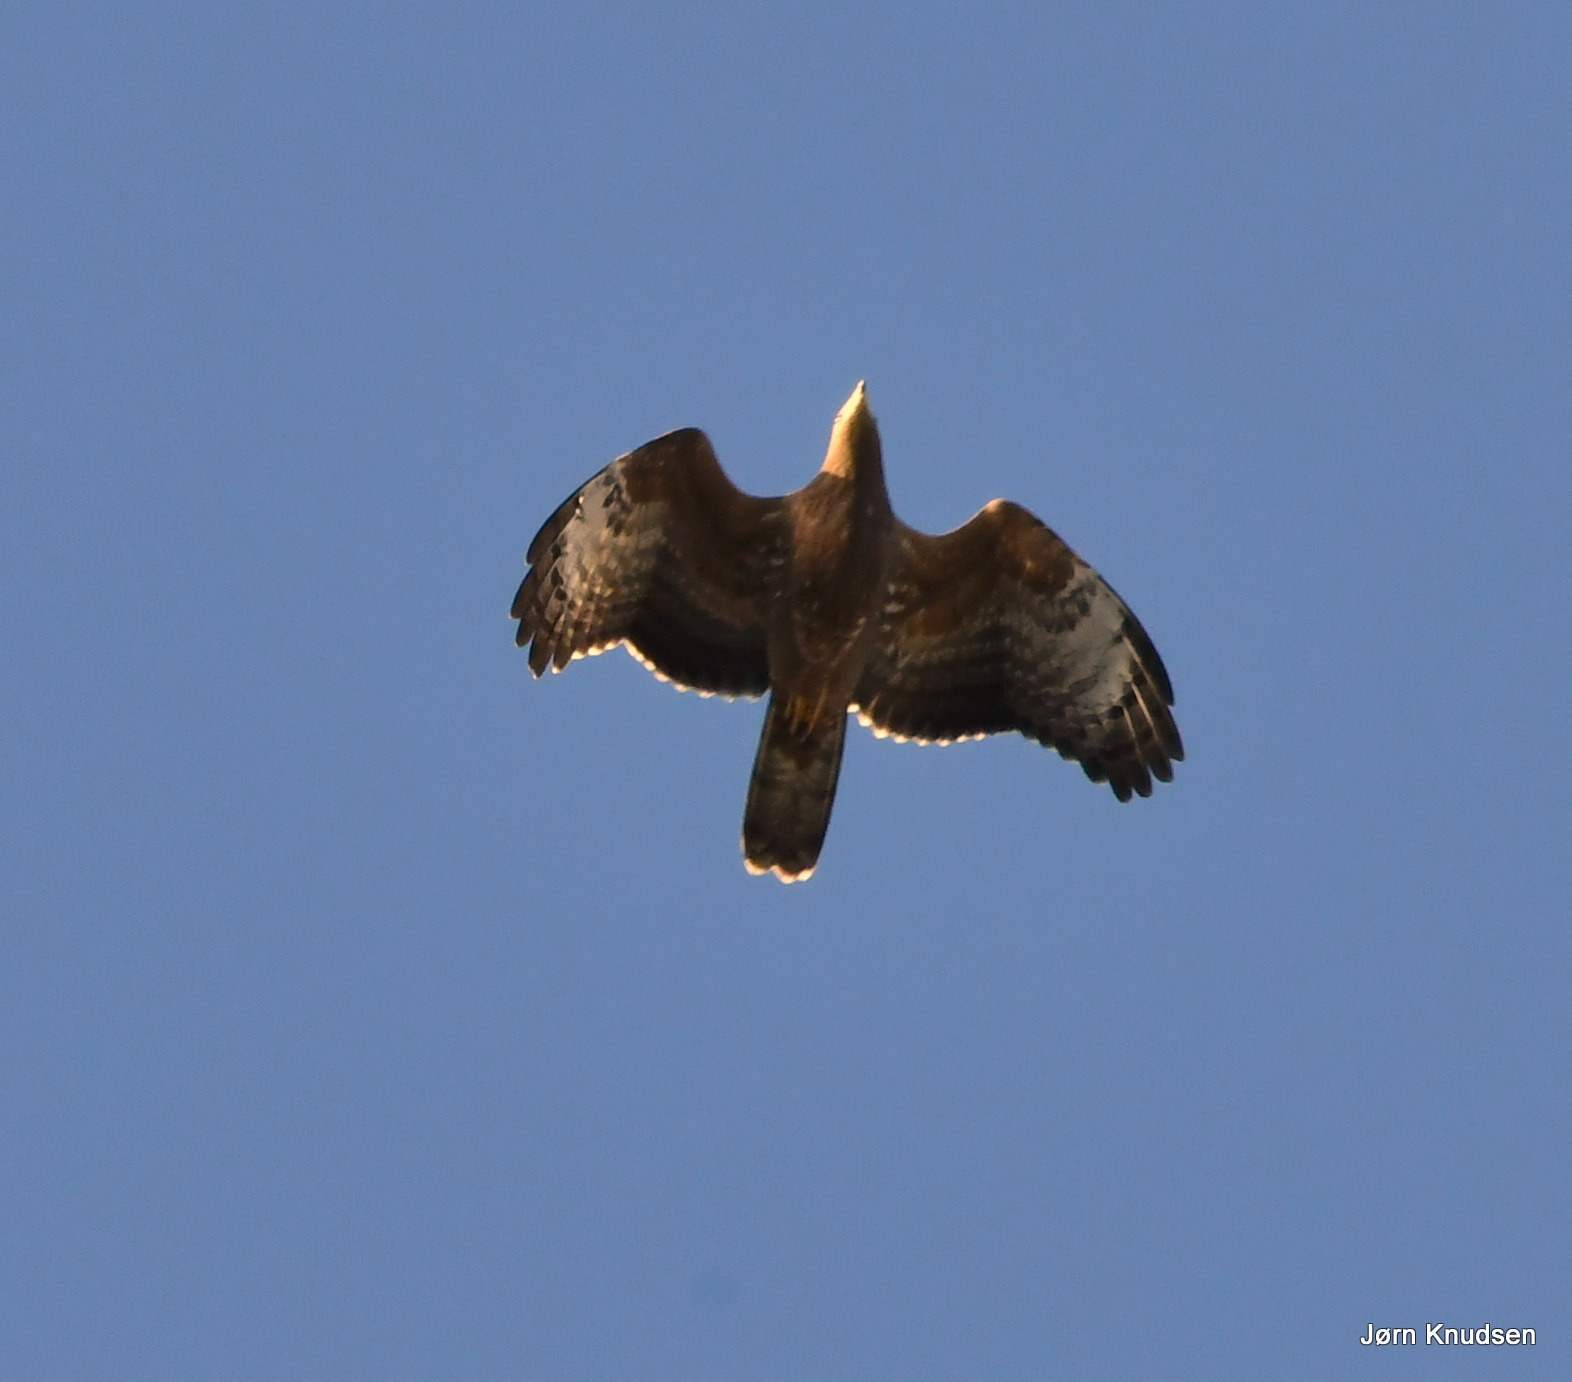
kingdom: Animalia
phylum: Chordata
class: Aves
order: Accipitriformes
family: Accipitridae
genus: Pernis
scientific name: Pernis apivorus
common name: Hvepsevåge
